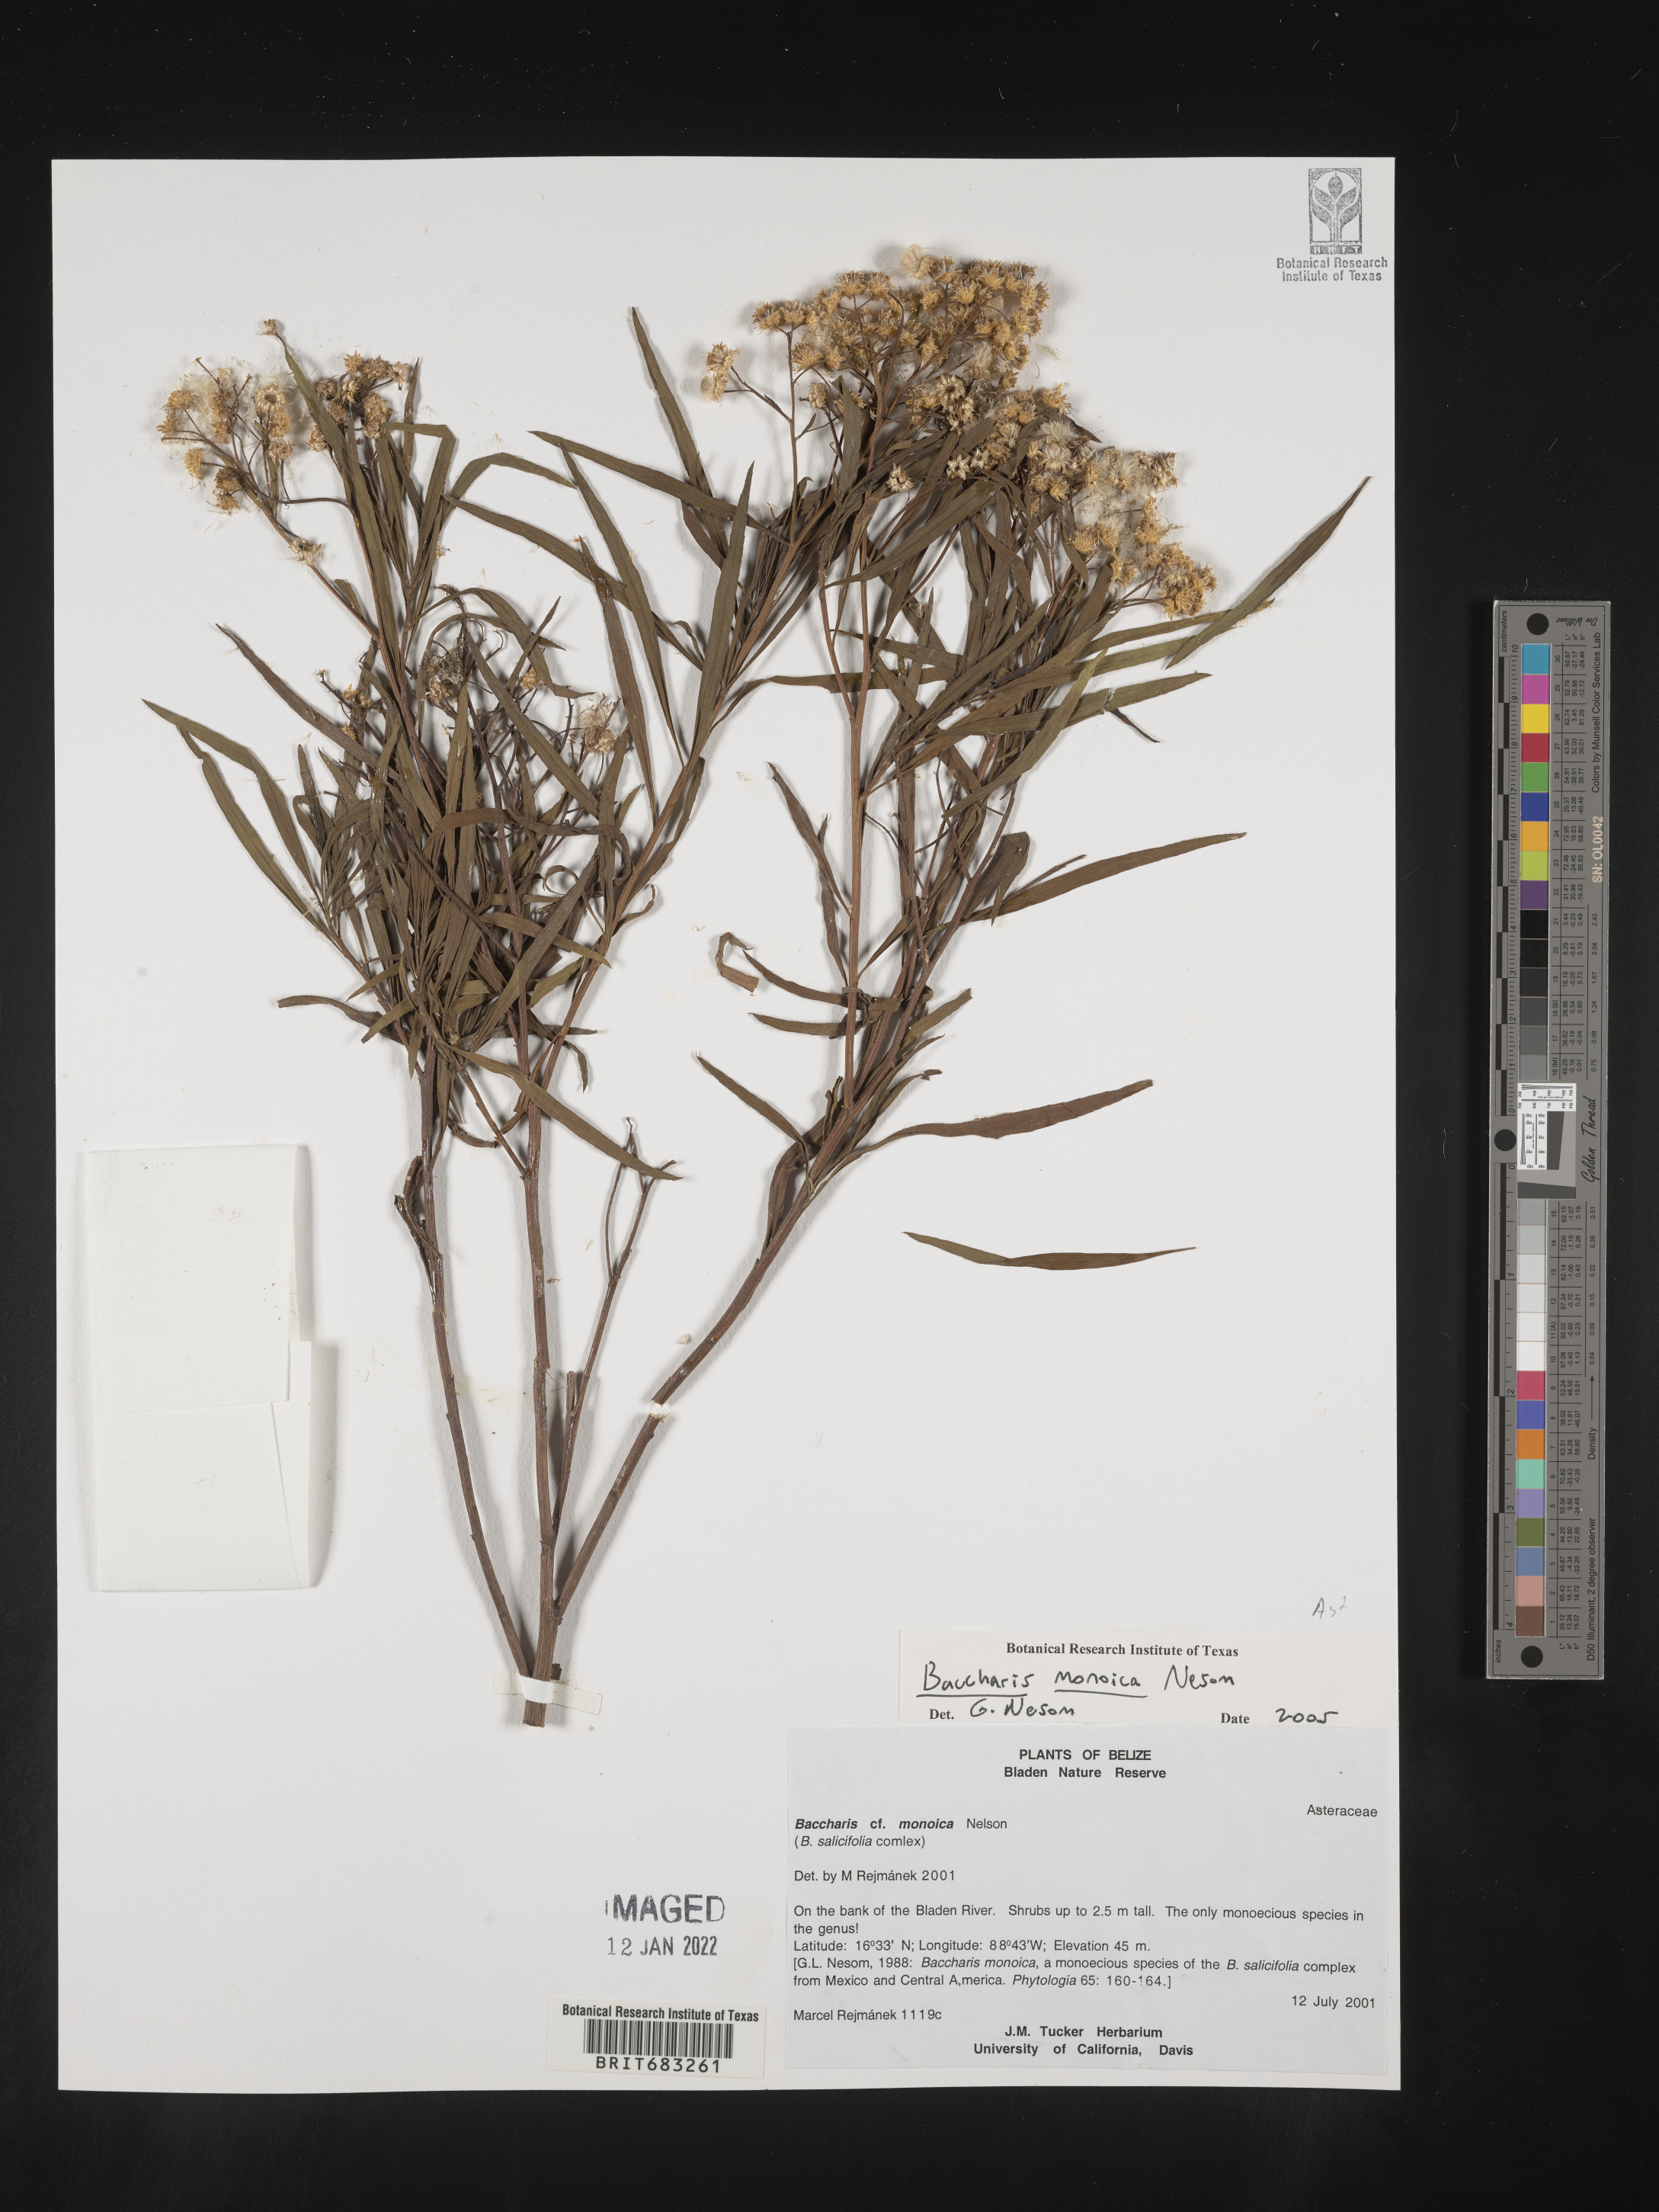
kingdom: Plantae
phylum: Tracheophyta
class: Magnoliopsida
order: Asterales
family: Asteraceae
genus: Baccharis
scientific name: Baccharis salicifolia
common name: Sticky baccharis
